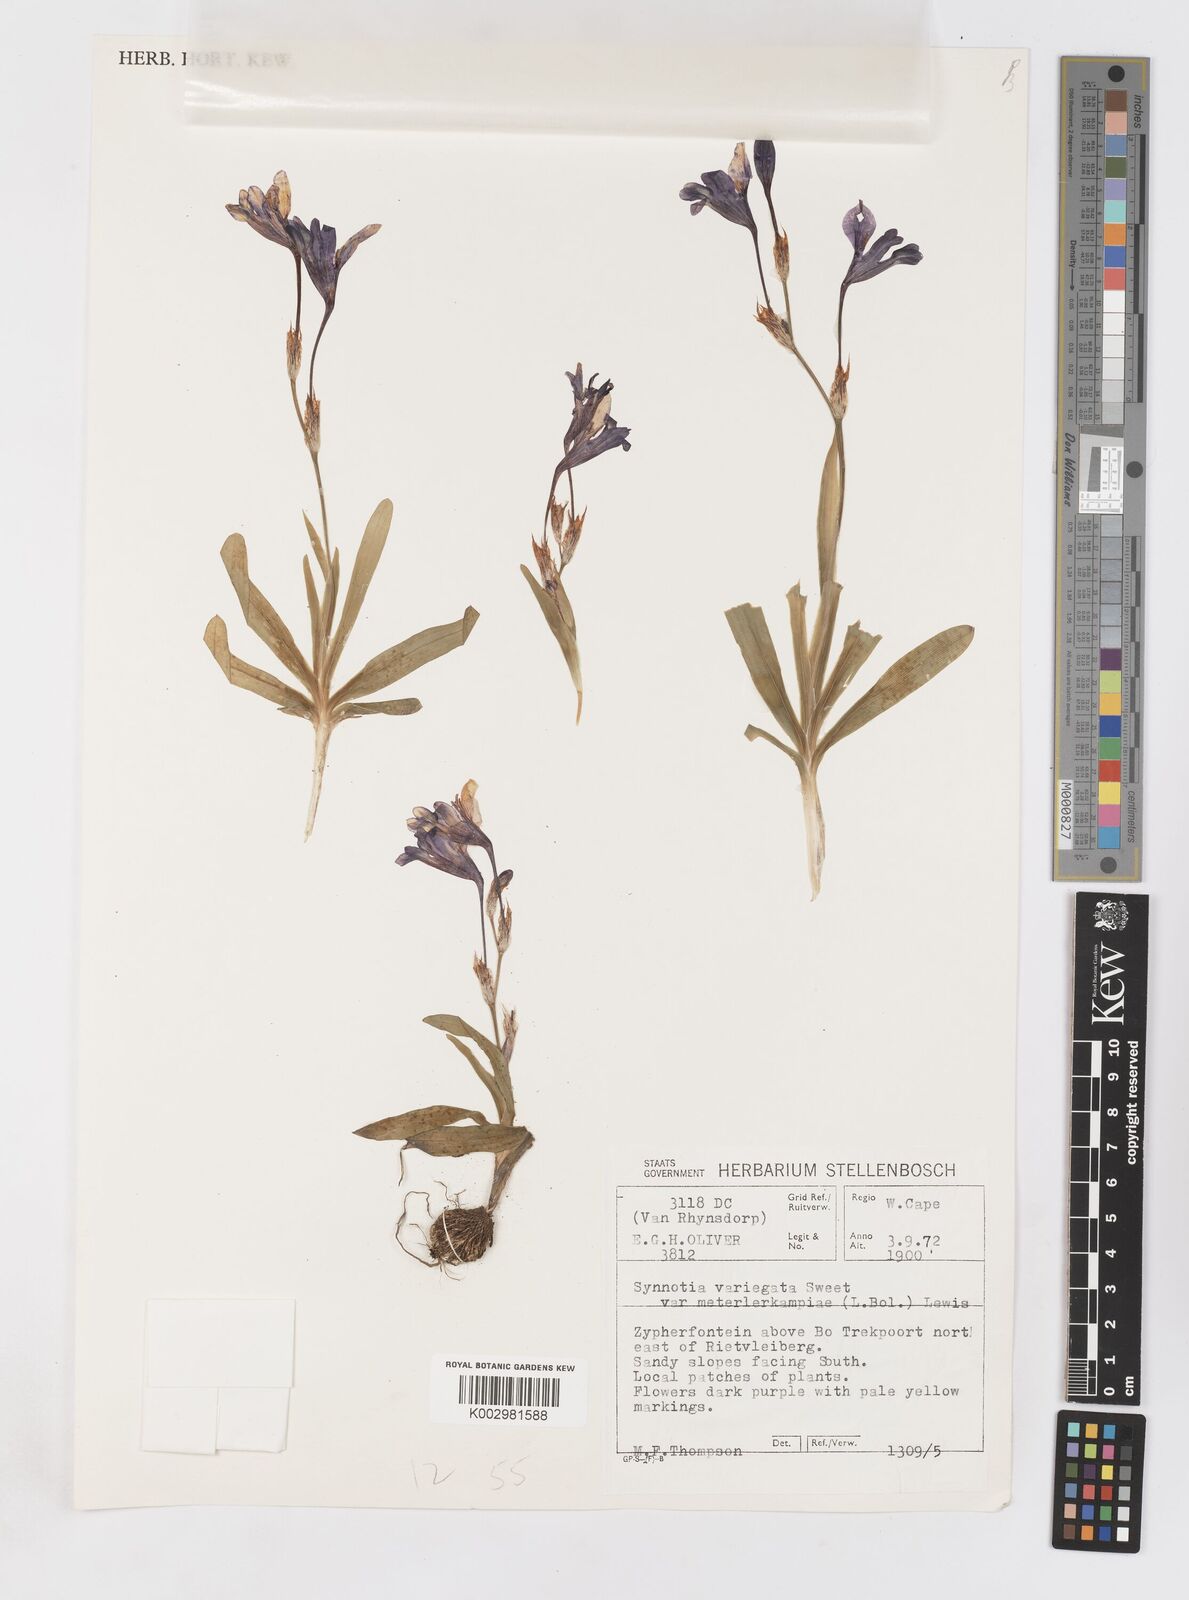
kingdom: Plantae
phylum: Tracheophyta
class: Liliopsida
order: Asparagales
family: Iridaceae
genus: Sparaxis
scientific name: Sparaxis metelerkampiae
